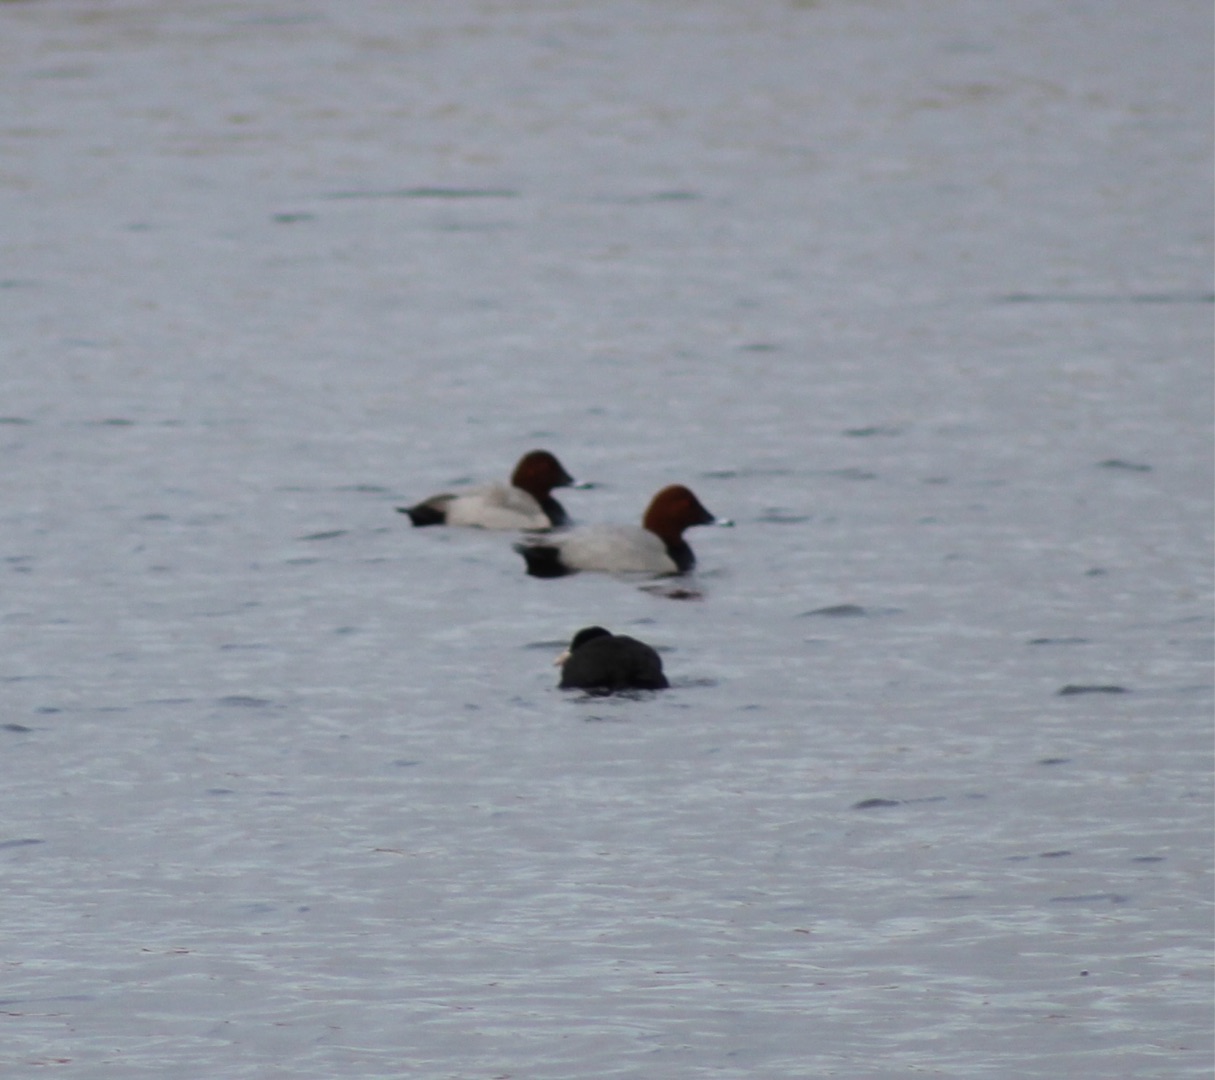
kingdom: Animalia
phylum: Chordata
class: Aves
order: Anseriformes
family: Anatidae
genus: Aythya
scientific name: Aythya ferina
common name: Taffeland
